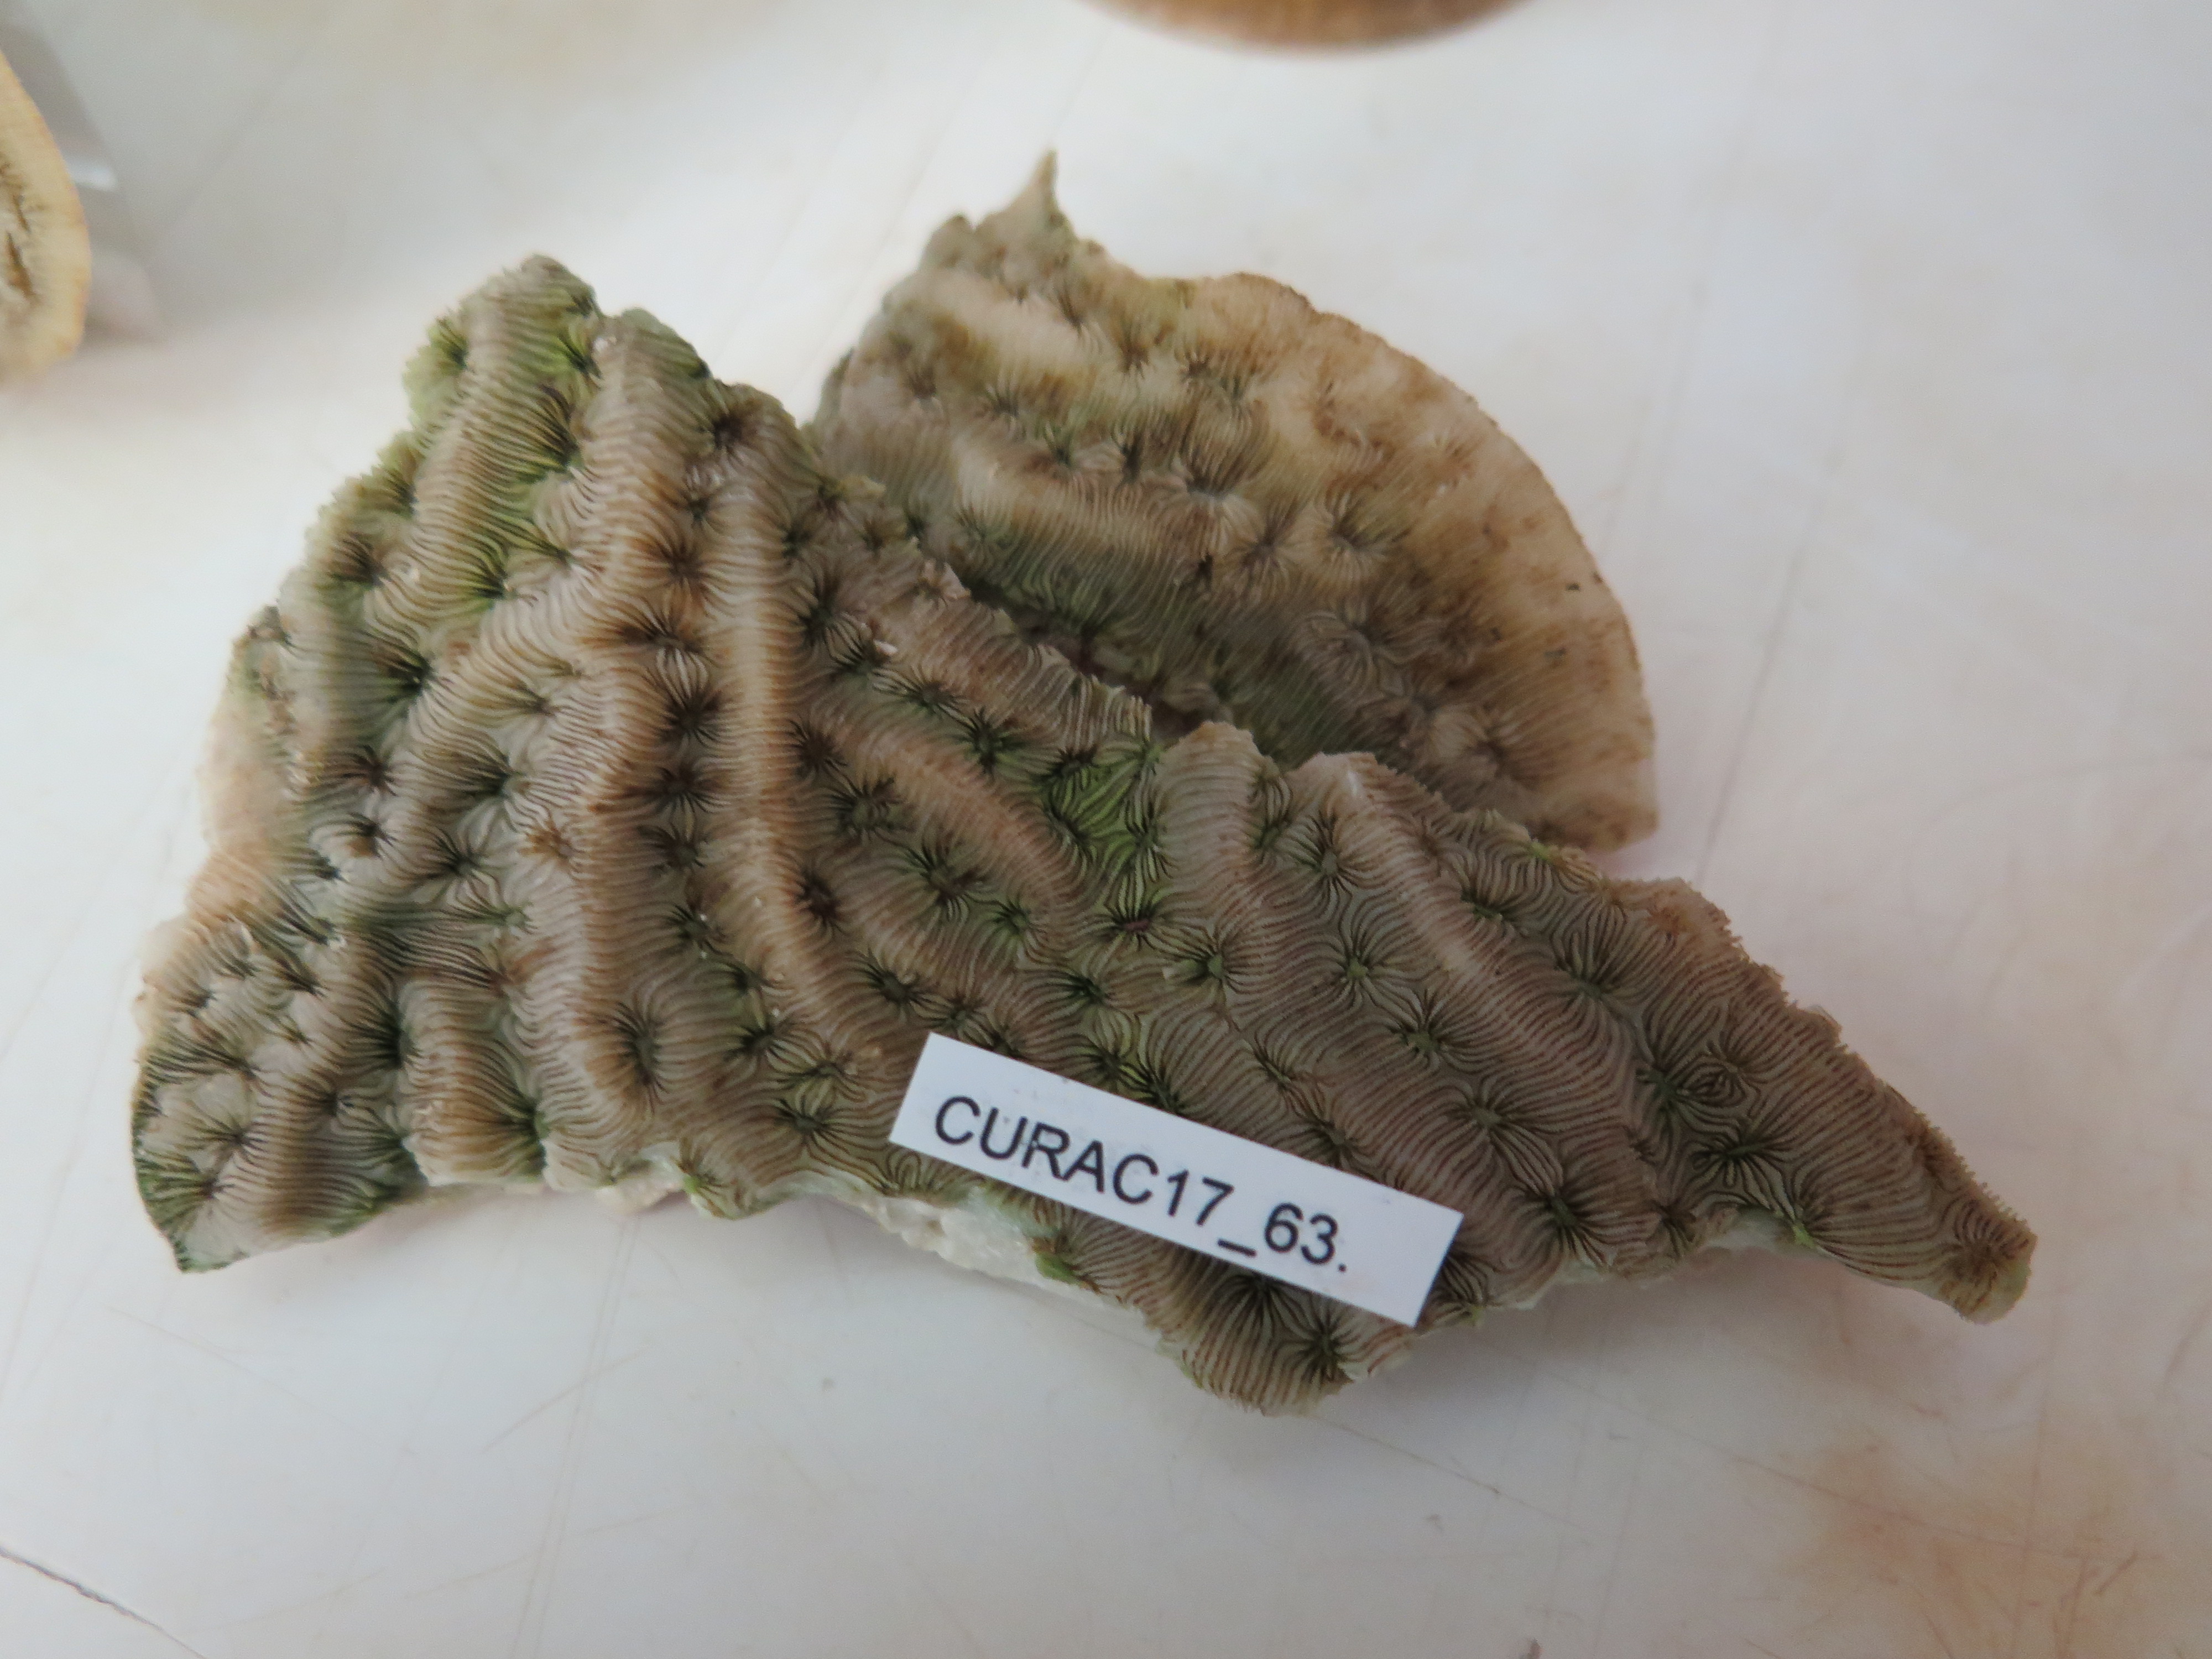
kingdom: Animalia
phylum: Cnidaria
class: Anthozoa
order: Scleractinia
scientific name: Scleractinia
